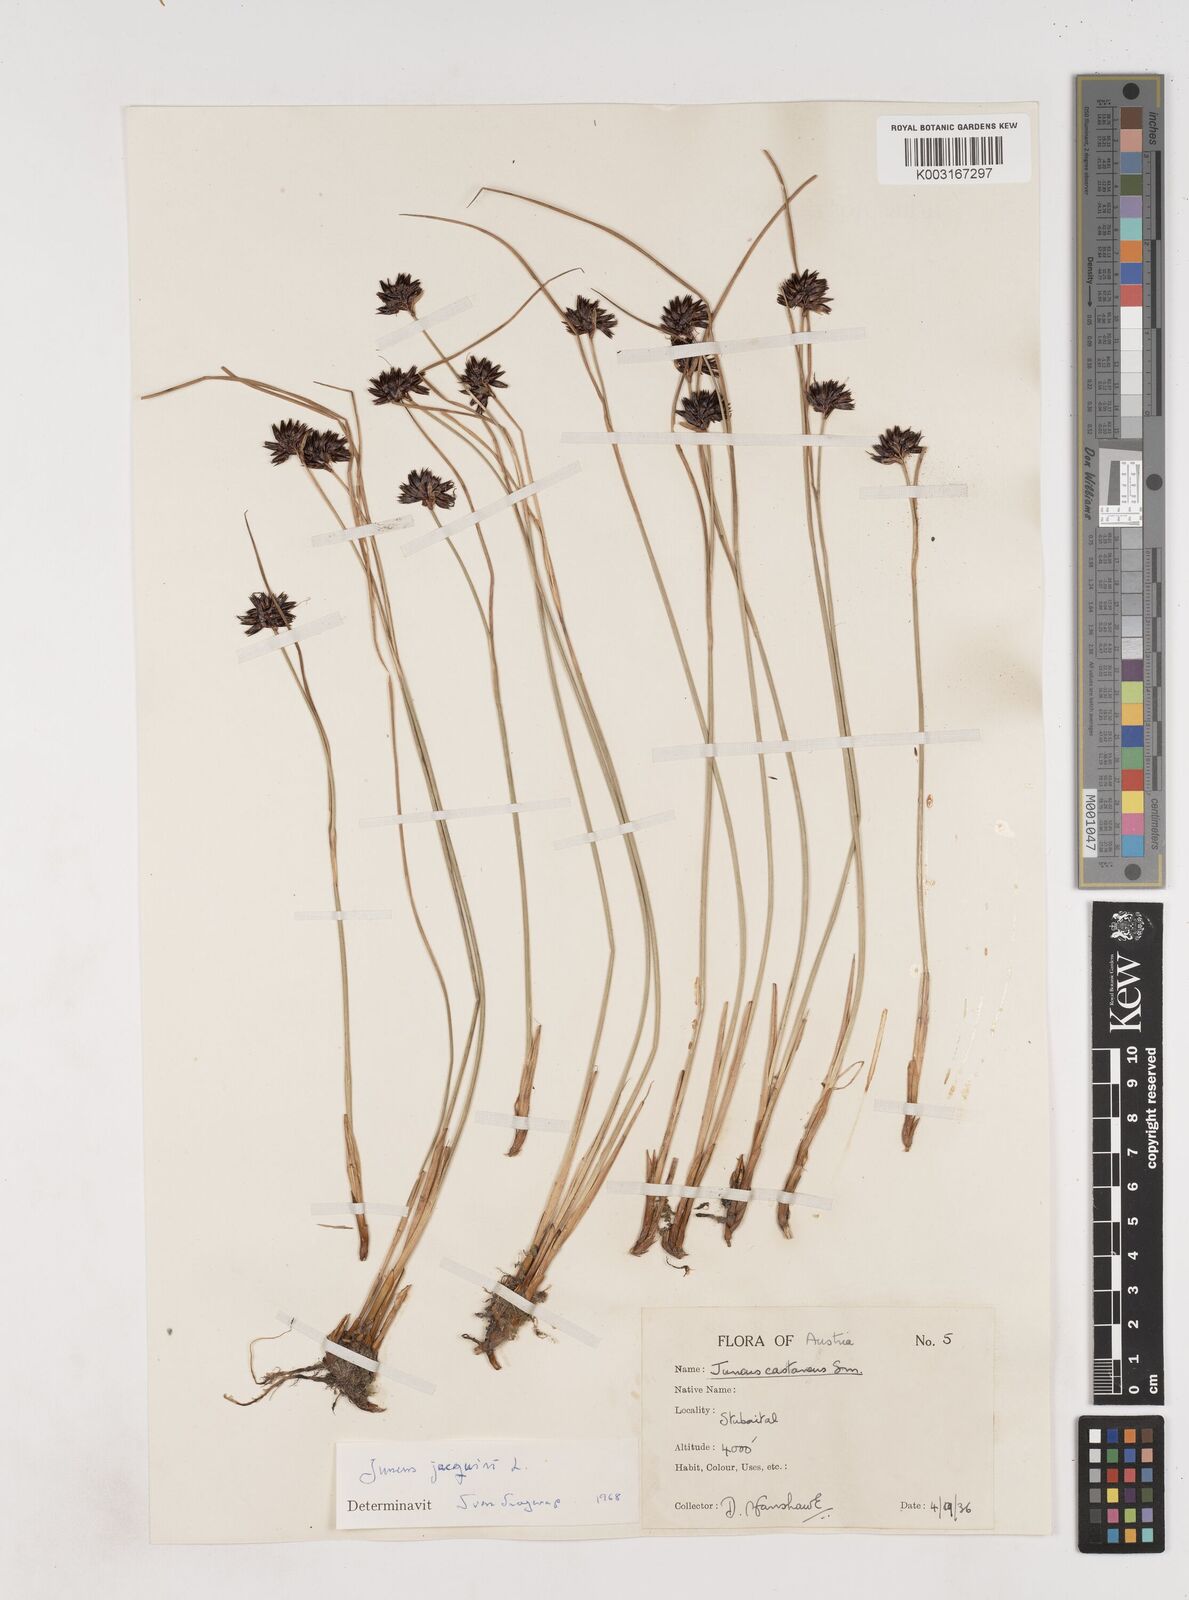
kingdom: Plantae
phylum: Tracheophyta
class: Liliopsida
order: Poales
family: Juncaceae
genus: Juncus
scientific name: Juncus jacquinii
